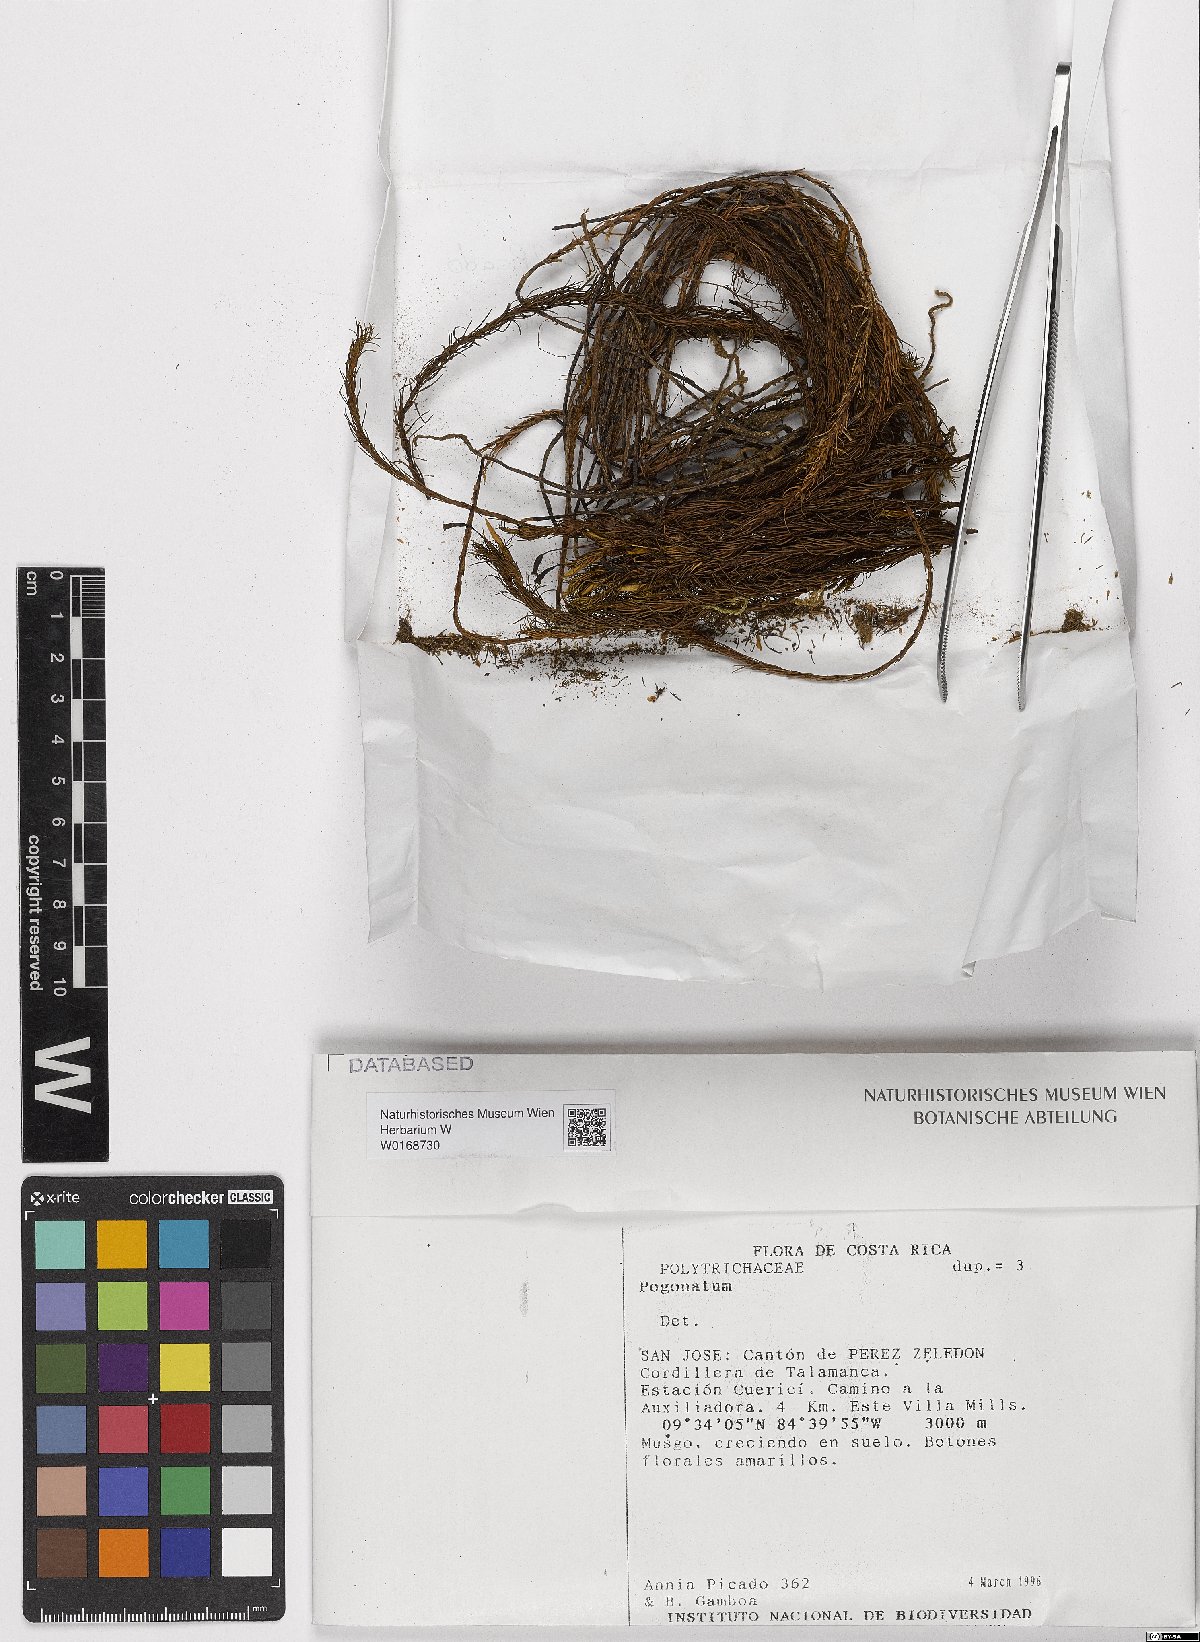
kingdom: Plantae
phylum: Bryophyta
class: Polytrichopsida
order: Polytrichales
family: Polytrichaceae
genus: Pogonatum
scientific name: Pogonatum
